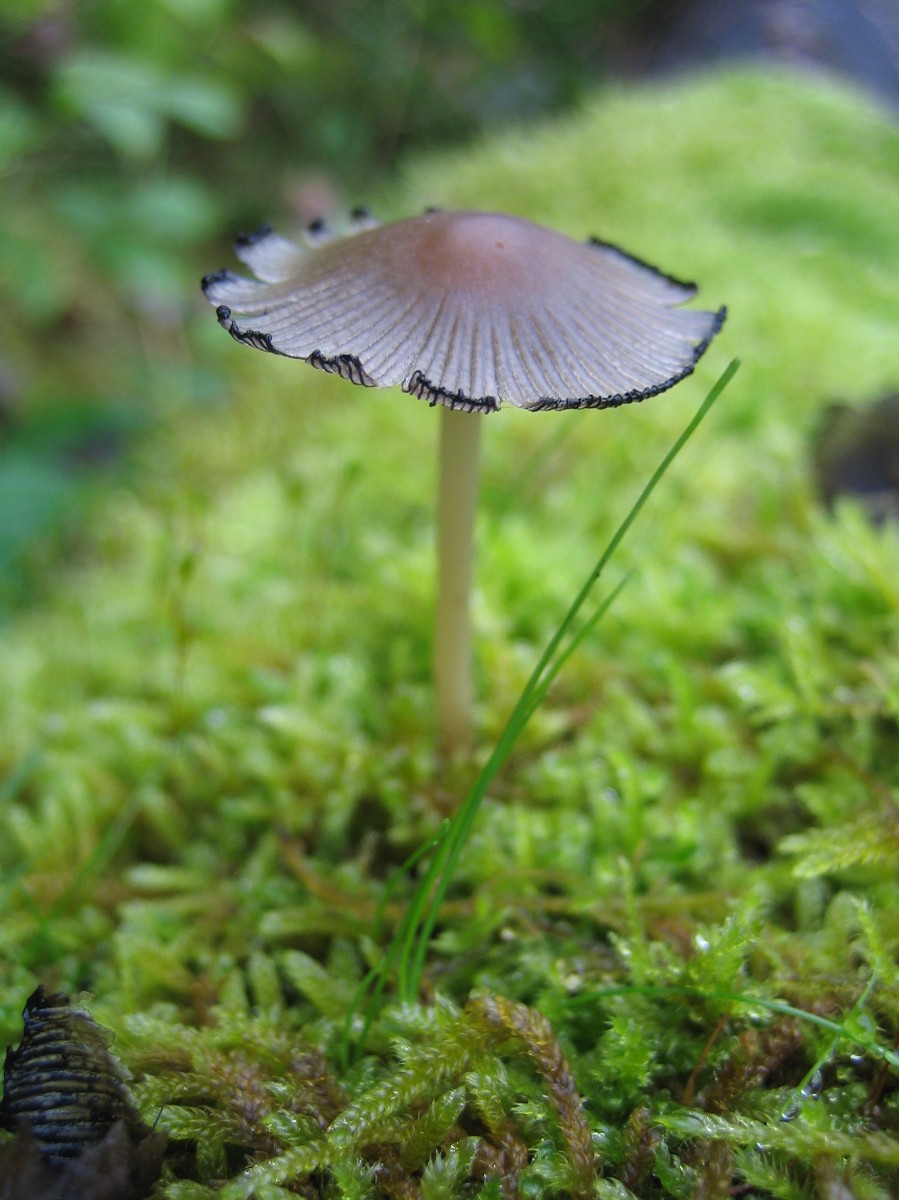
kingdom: Fungi
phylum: Basidiomycota
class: Agaricomycetes
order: Agaricales
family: Psathyrellaceae
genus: Coprinellus
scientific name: Coprinellus
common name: blækhat
